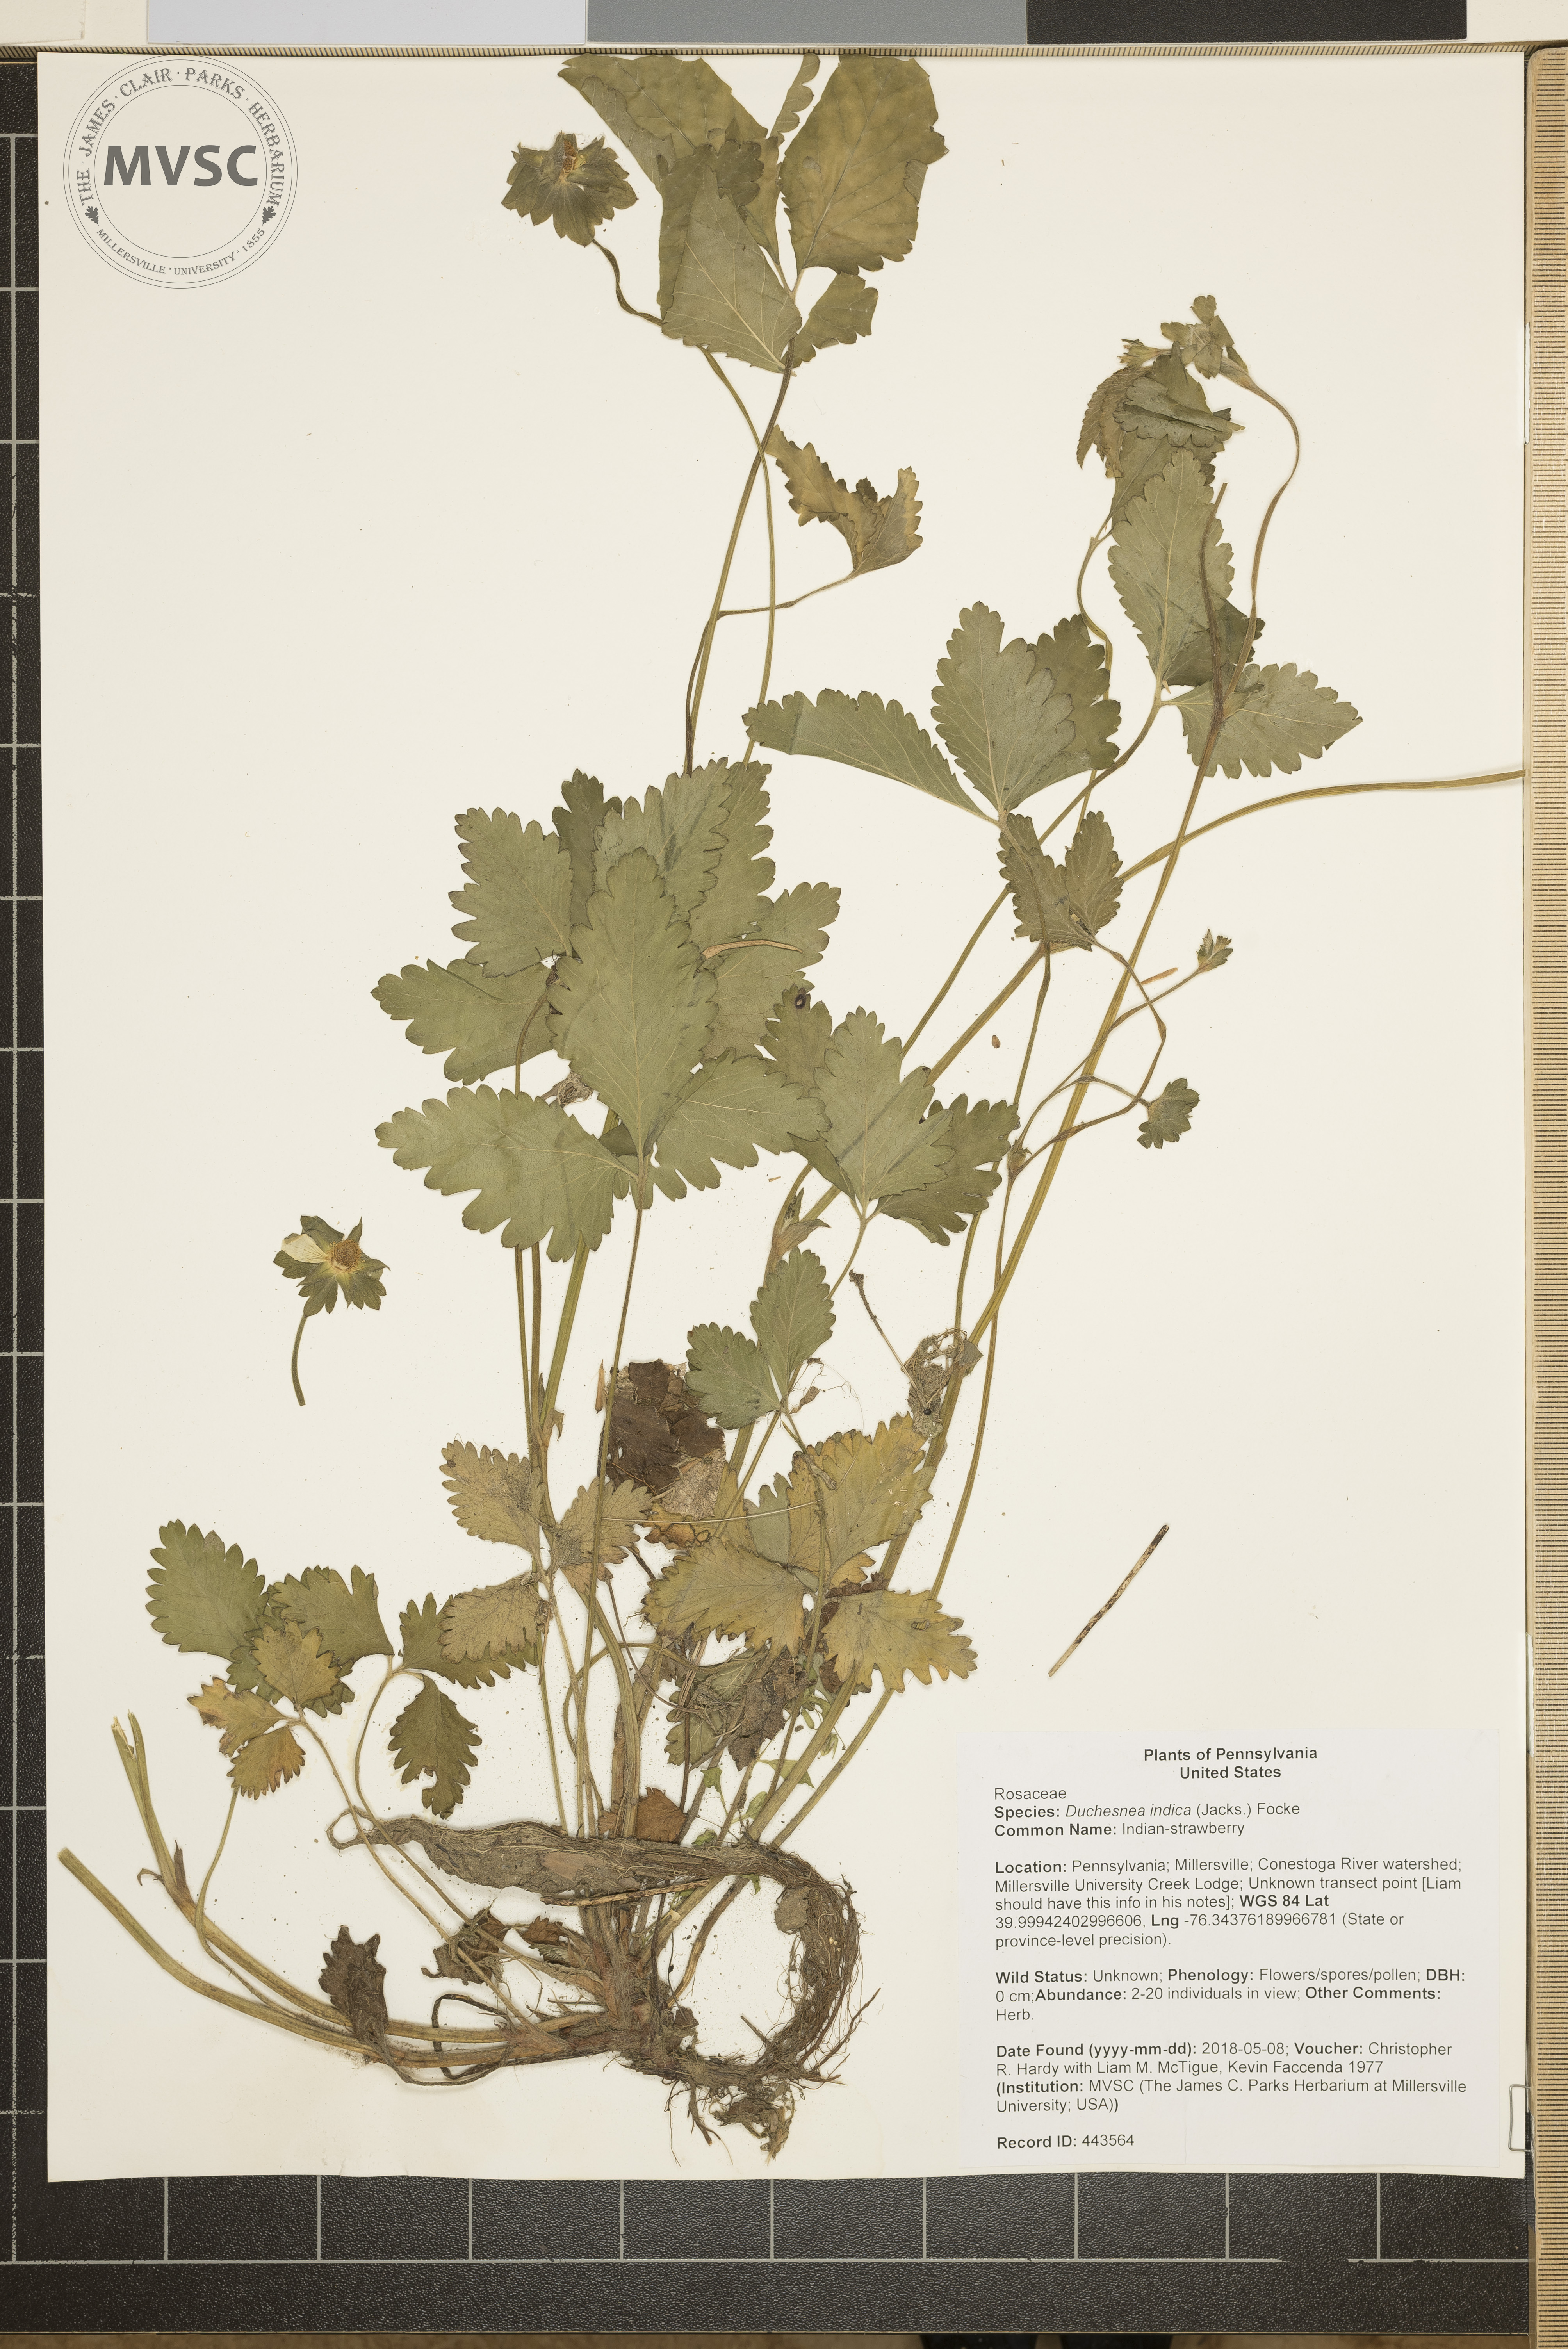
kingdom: Plantae
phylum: Tracheophyta
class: Magnoliopsida
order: Rosales
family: Rosaceae
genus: Potentilla
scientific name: Potentilla indica
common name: Indian-strawberry
